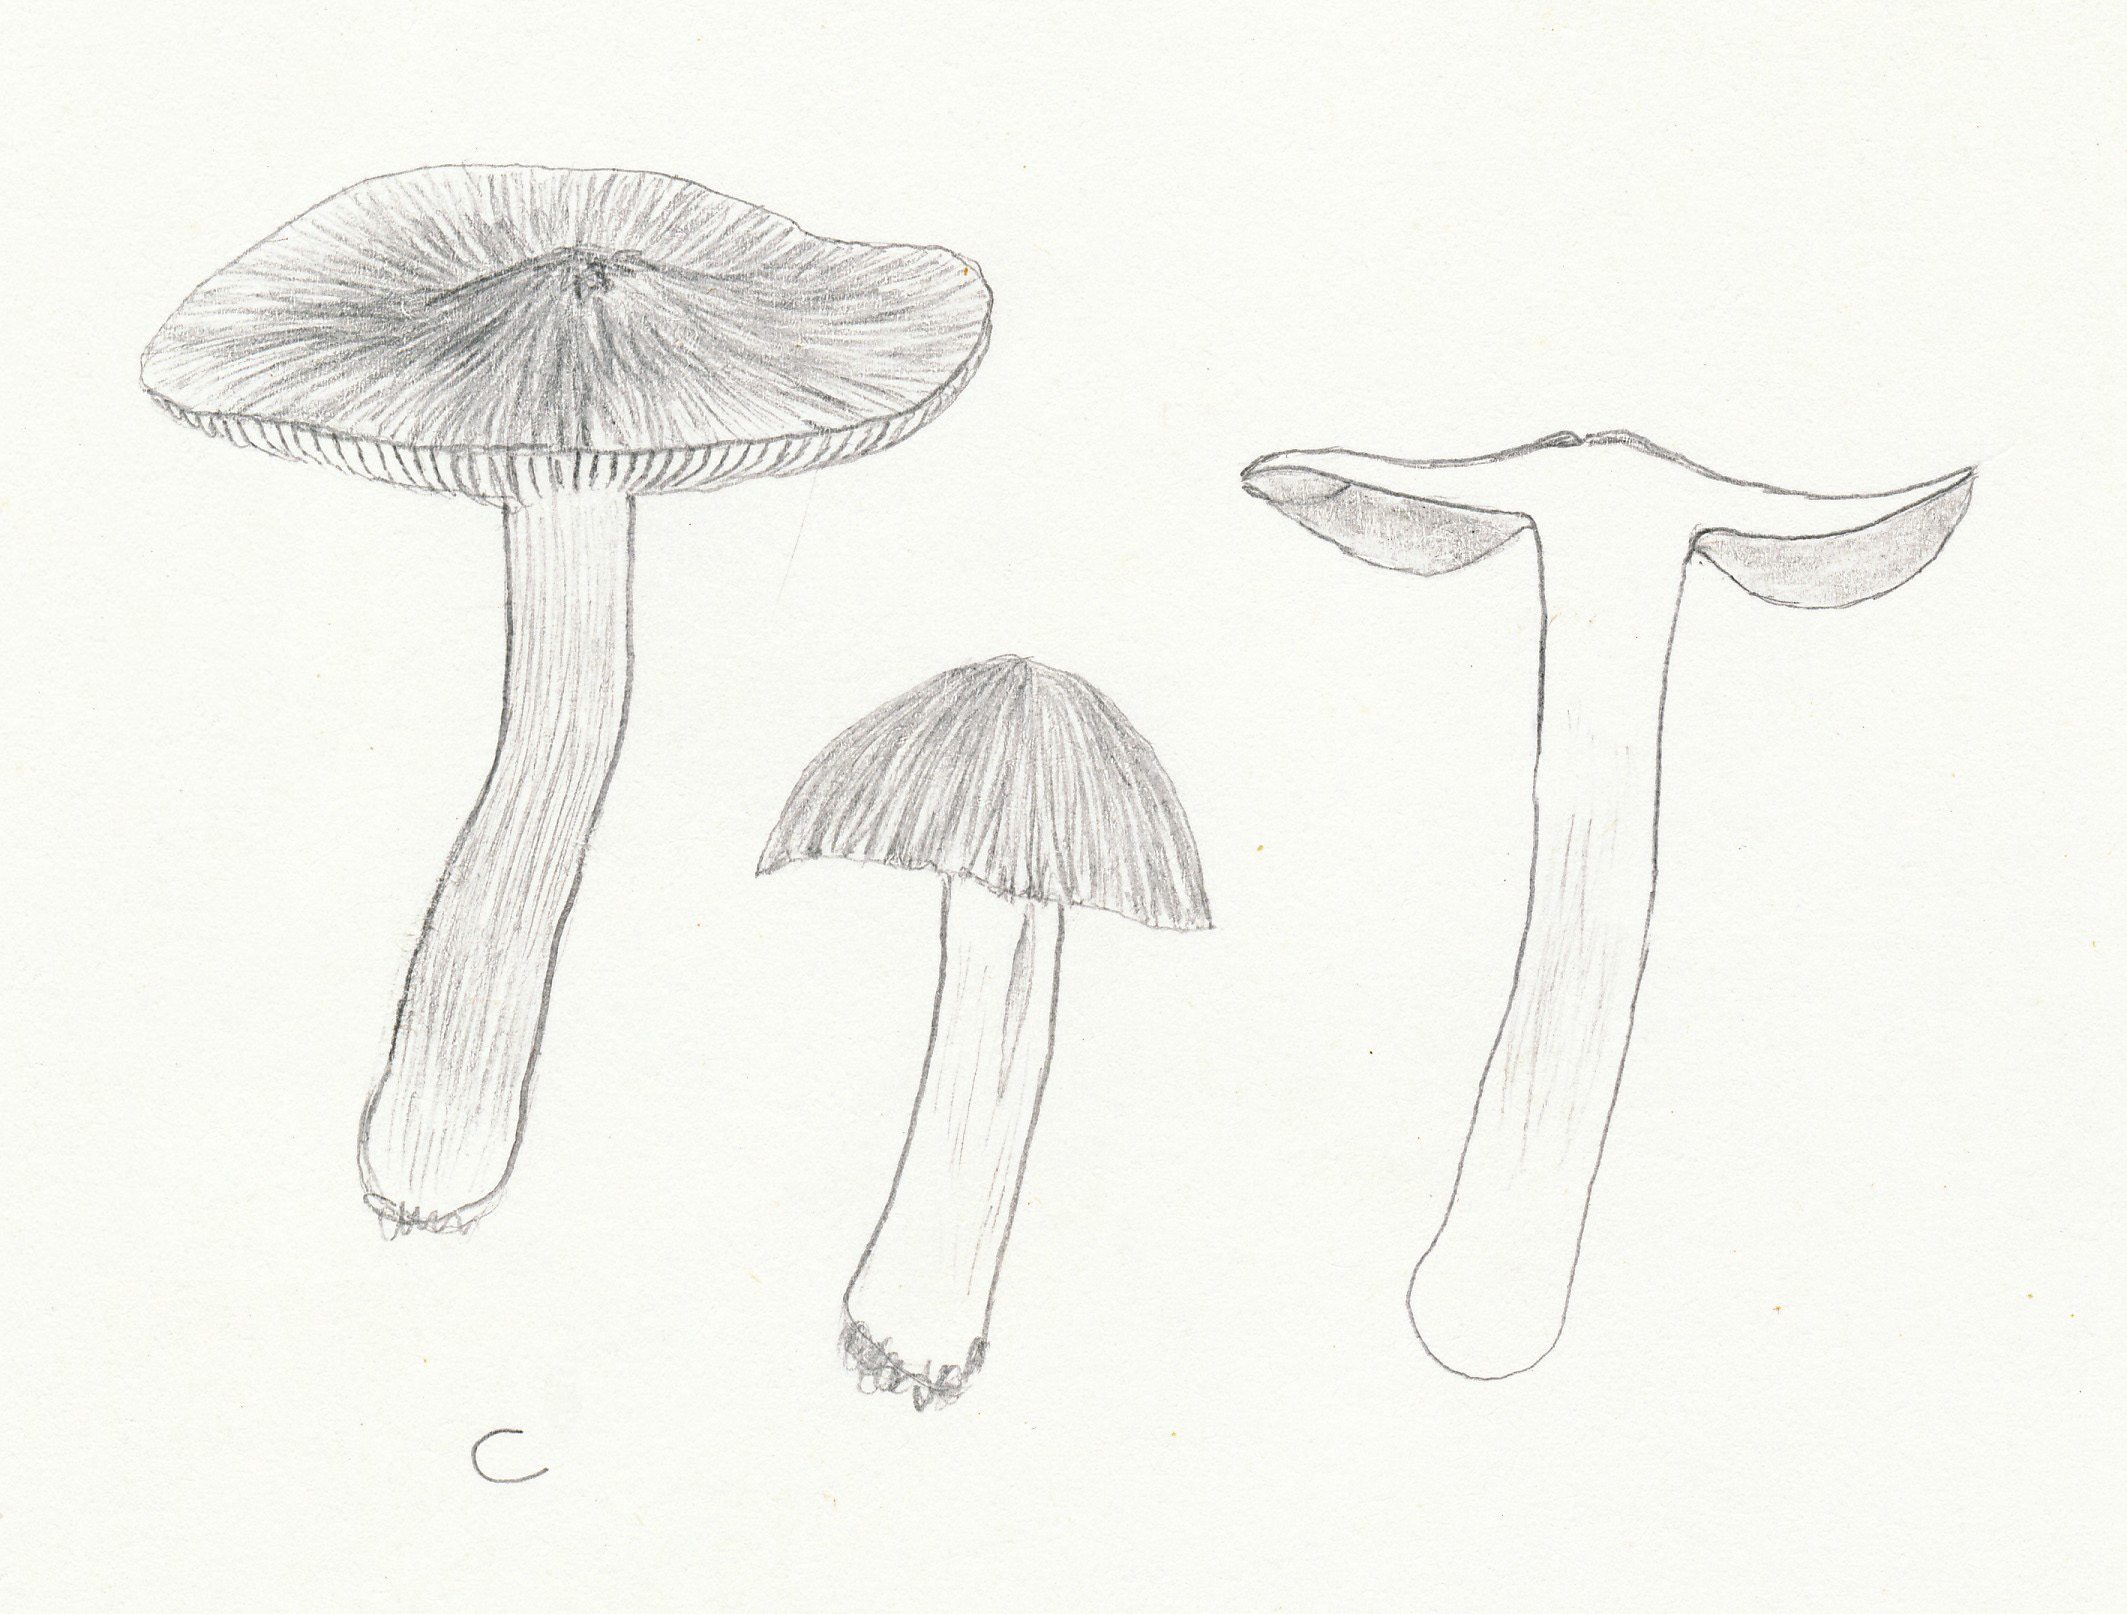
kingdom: Fungi
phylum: Basidiomycota
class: Agaricomycetes
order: Agaricales
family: Inocybaceae
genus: Pseudosperma
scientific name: Pseudosperma rimosum
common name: gulbladet trævlhat
